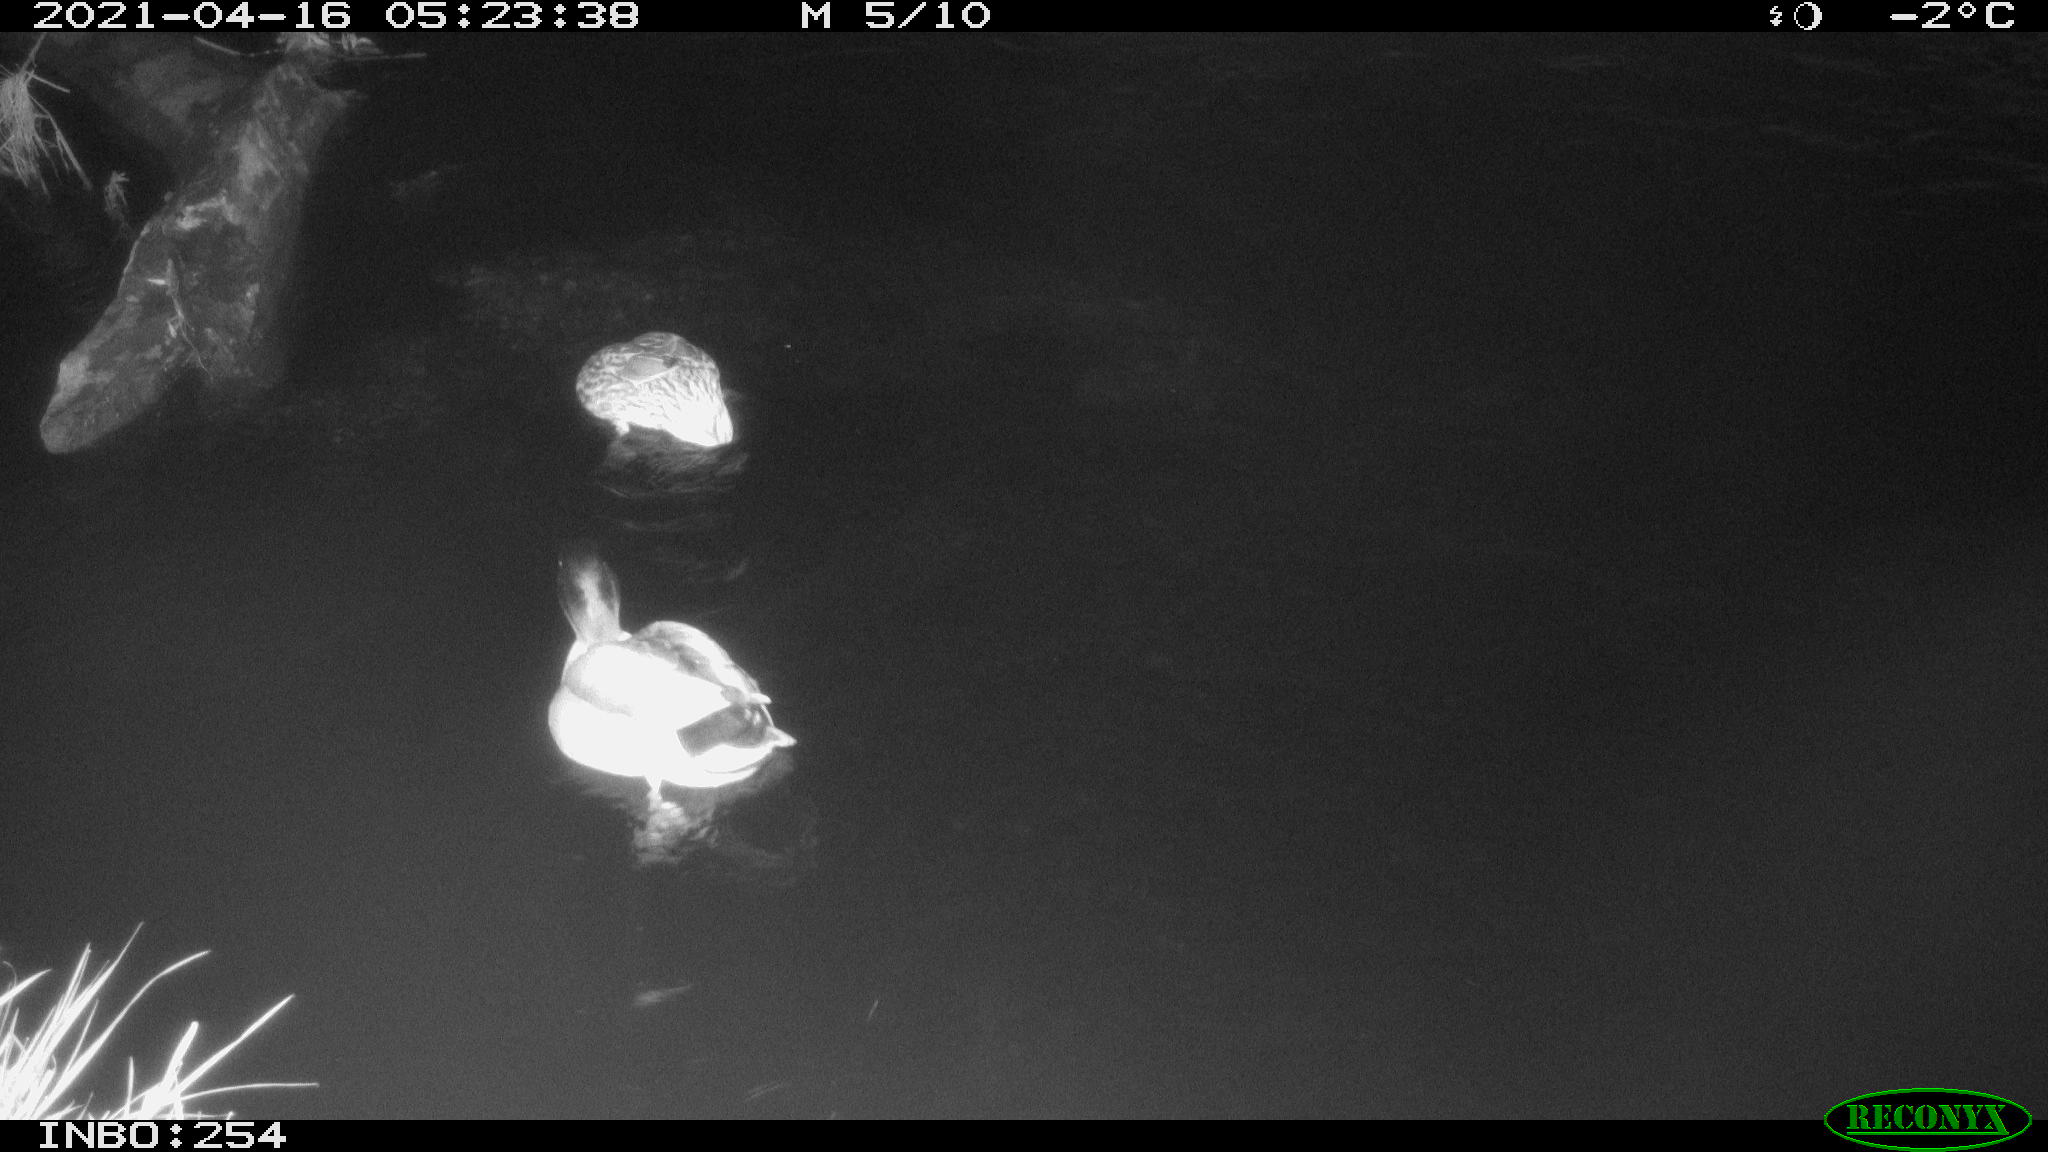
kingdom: Animalia
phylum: Chordata
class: Aves
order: Anseriformes
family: Anatidae
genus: Anas
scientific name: Anas
